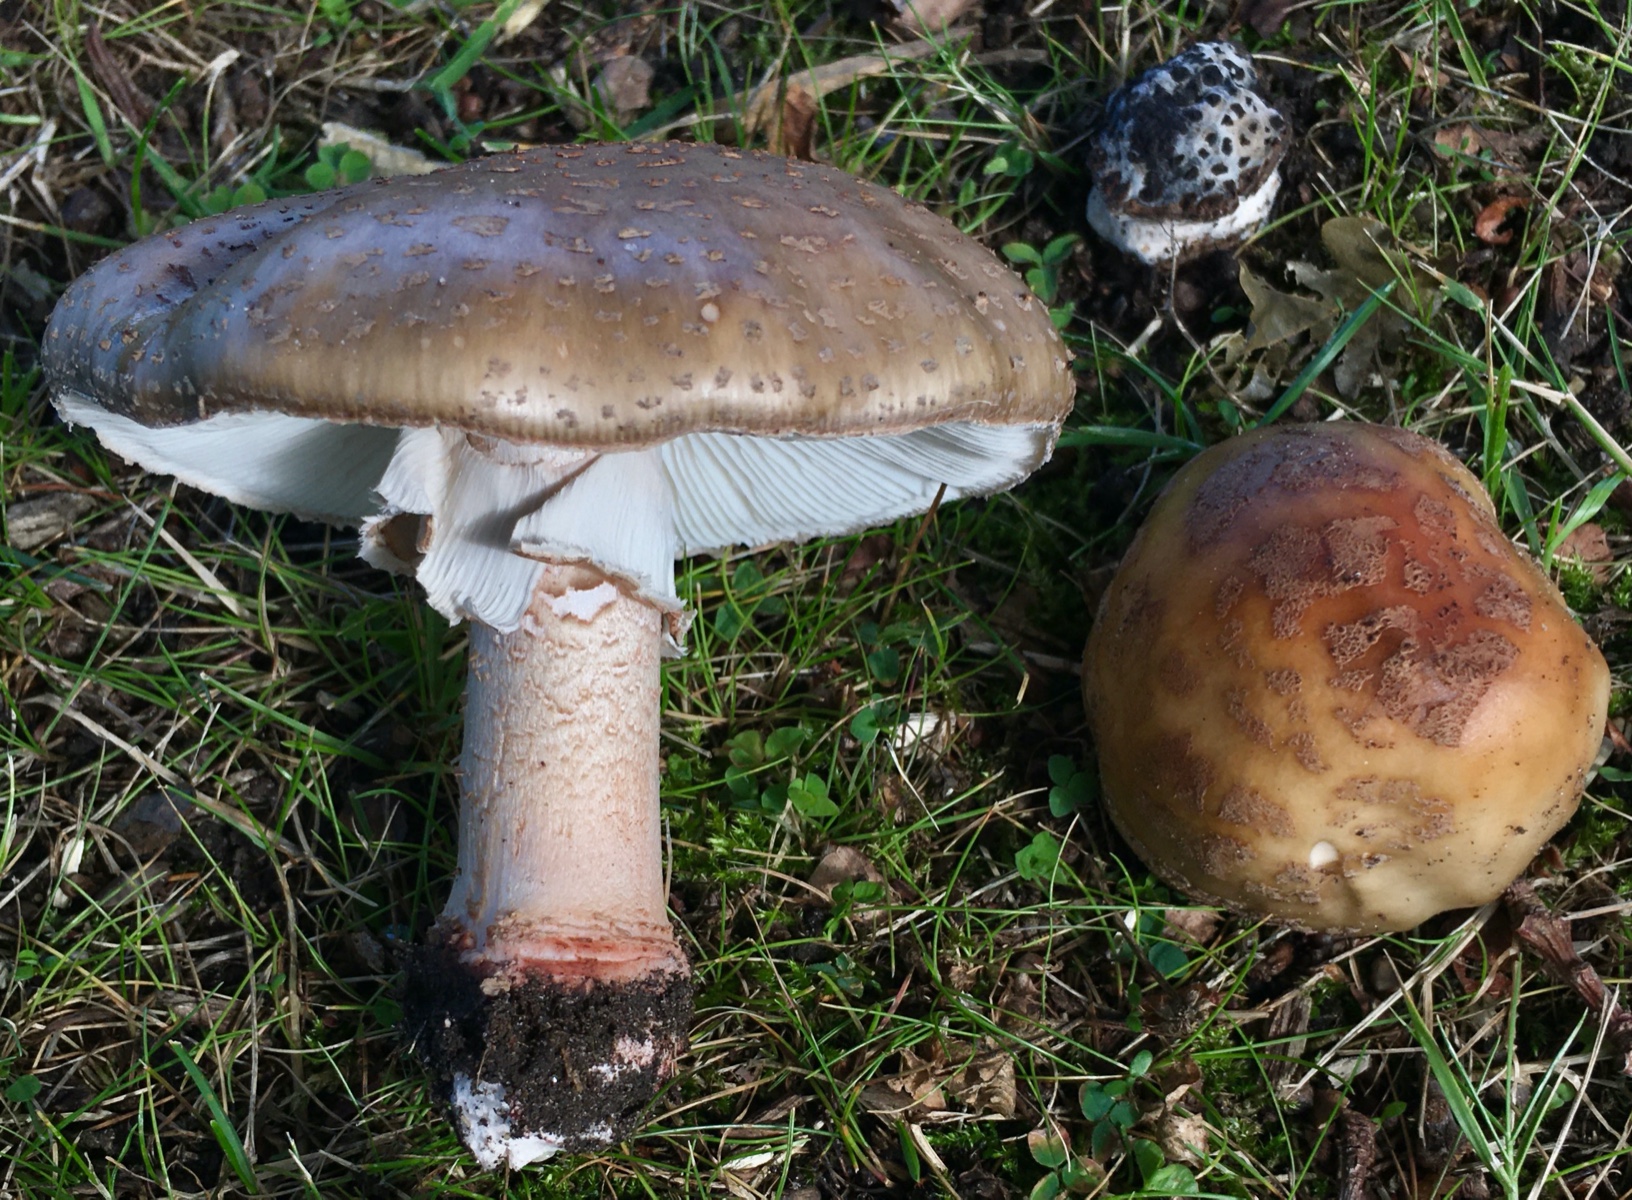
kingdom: Fungi
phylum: Basidiomycota
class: Agaricomycetes
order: Agaricales
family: Amanitaceae
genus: Amanita
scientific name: Amanita rubescens
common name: rødmende fluesvamp
